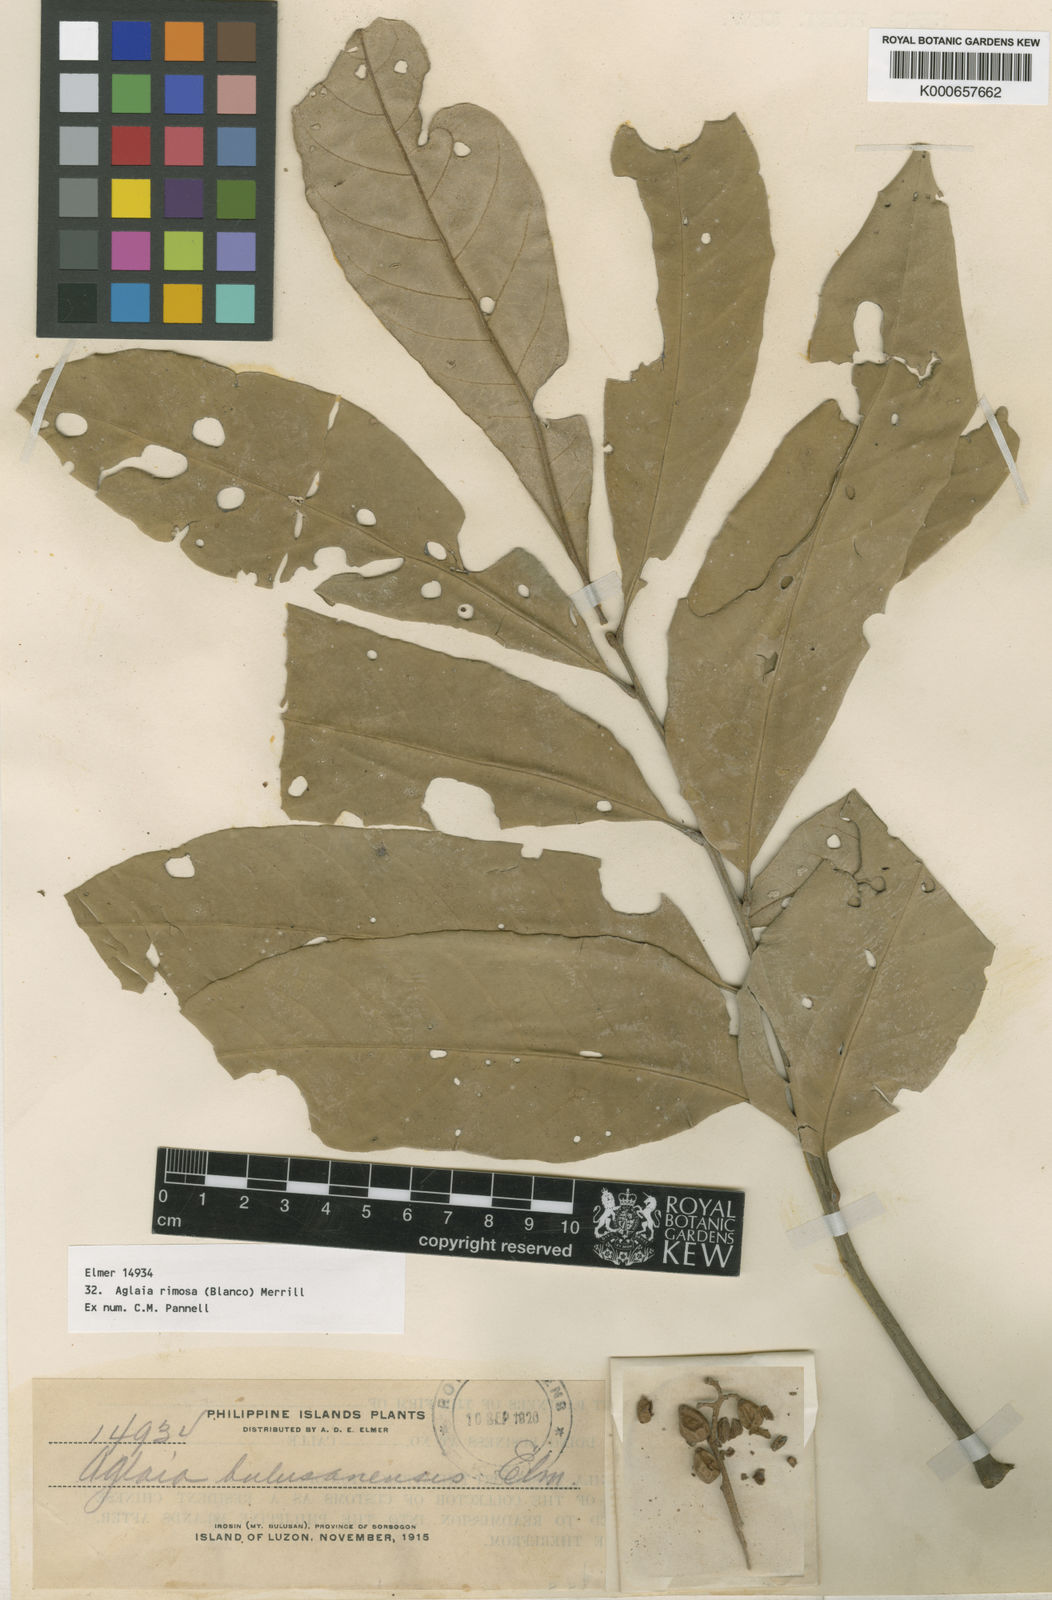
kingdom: Plantae
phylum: Tracheophyta
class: Magnoliopsida
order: Sapindales
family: Meliaceae
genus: Aglaia
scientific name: Aglaia rimosa
